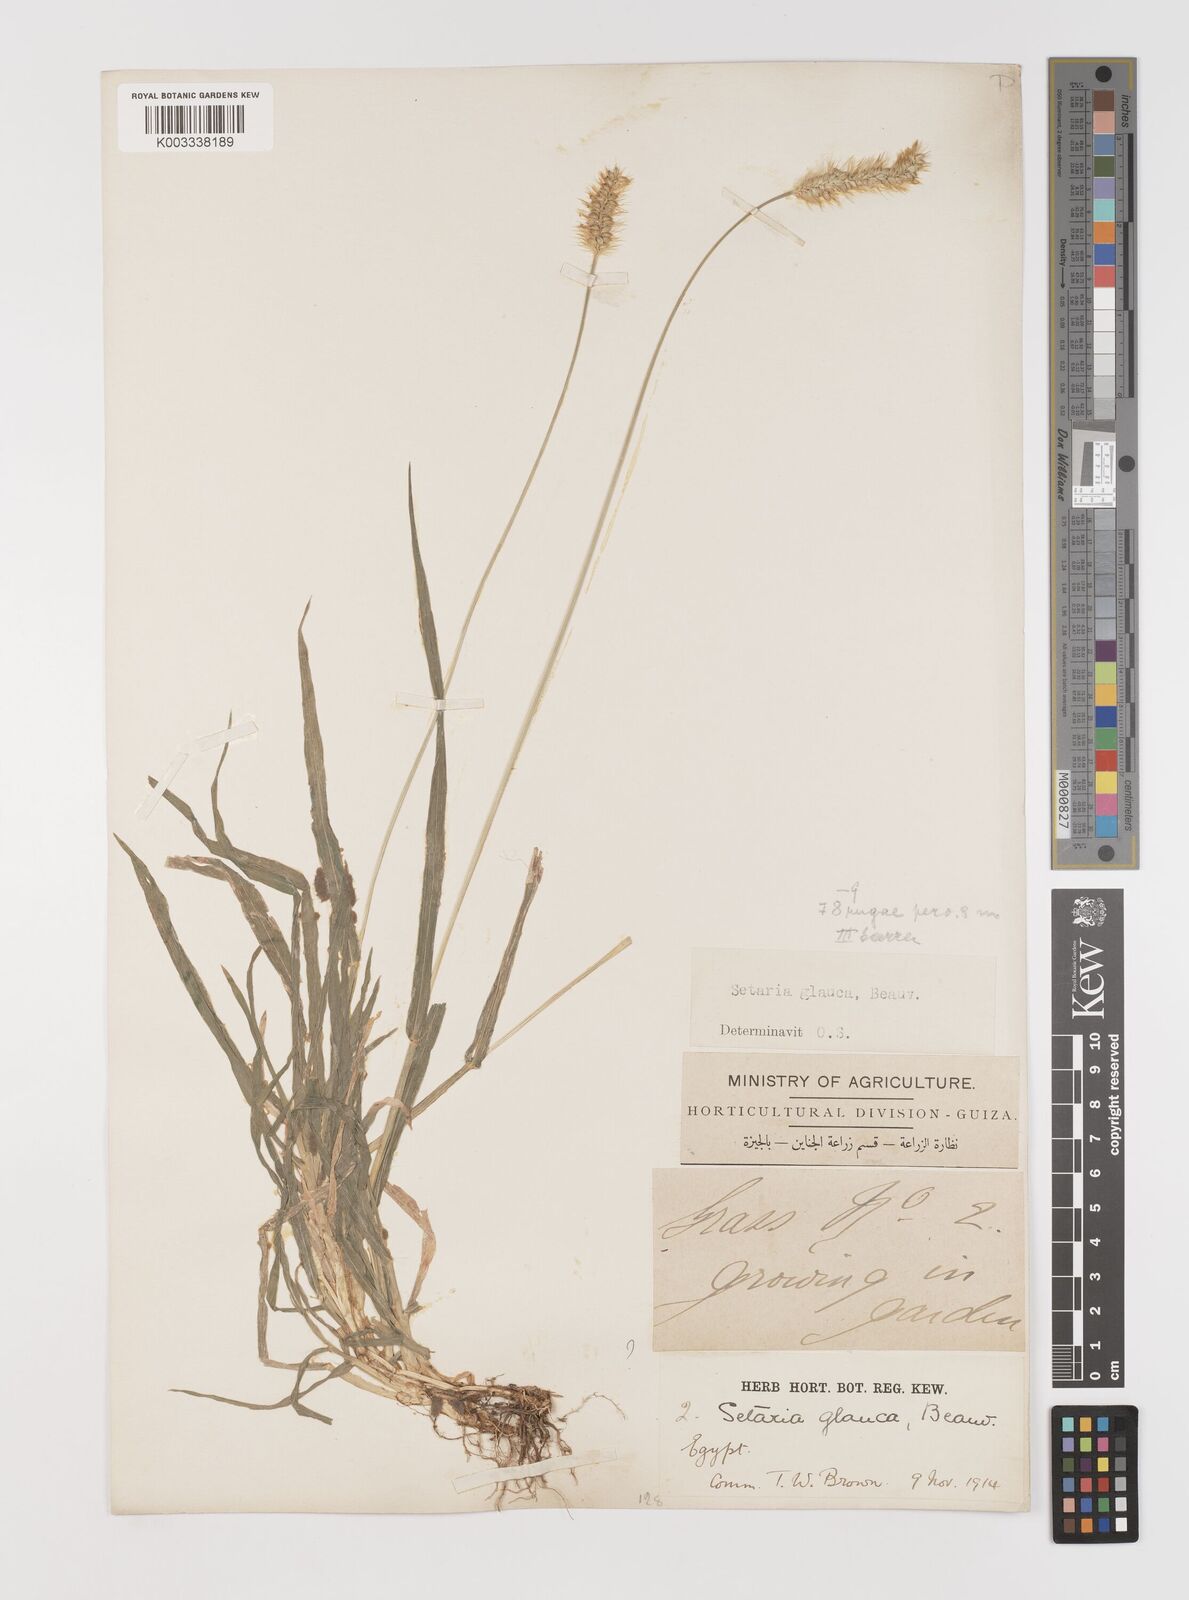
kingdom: Plantae
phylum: Tracheophyta
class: Liliopsida
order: Poales
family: Poaceae
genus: Setaria
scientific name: Setaria pumila
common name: Yellow bristle-grass
